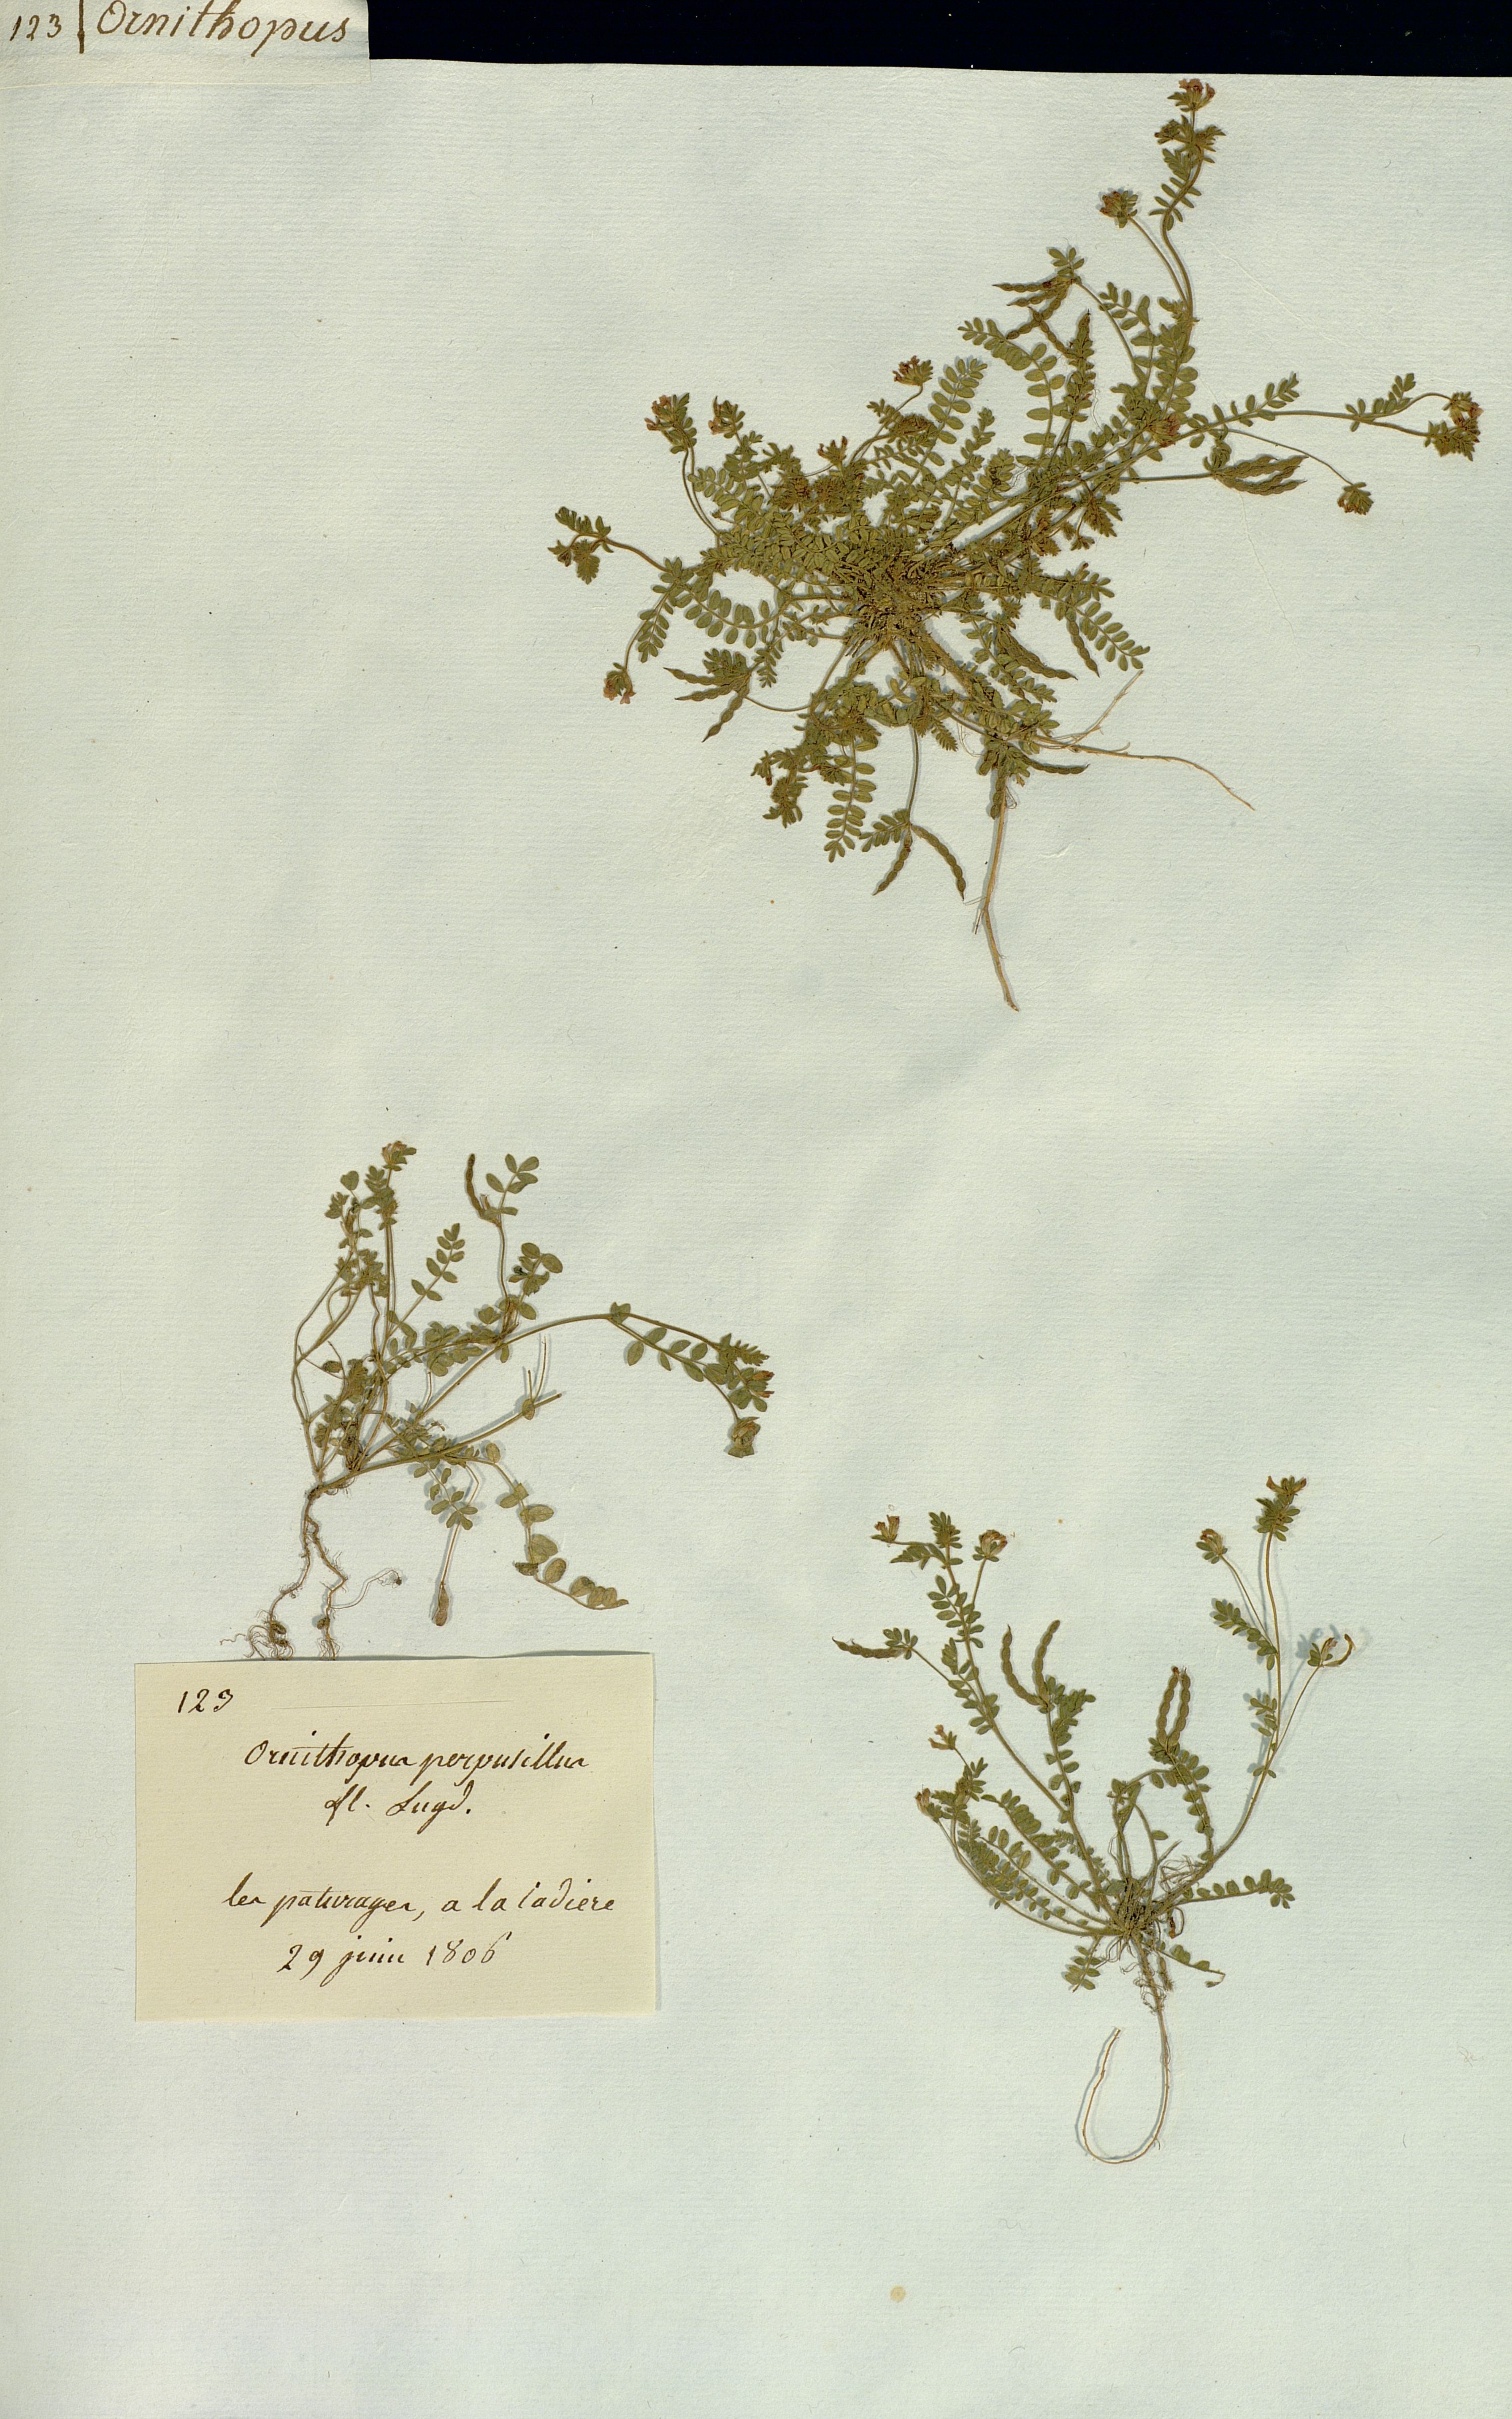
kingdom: Plantae
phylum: Tracheophyta
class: Magnoliopsida
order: Fabales
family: Fabaceae
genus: Ornithopus
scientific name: Ornithopus perpusillus
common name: Bird's-foot
